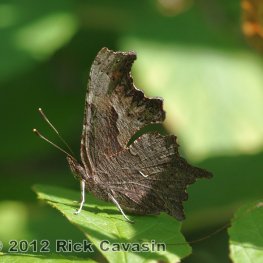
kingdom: Animalia
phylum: Arthropoda
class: Insecta
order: Lepidoptera
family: Nymphalidae
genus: Polygonia
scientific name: Polygonia progne
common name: Gray Comma
